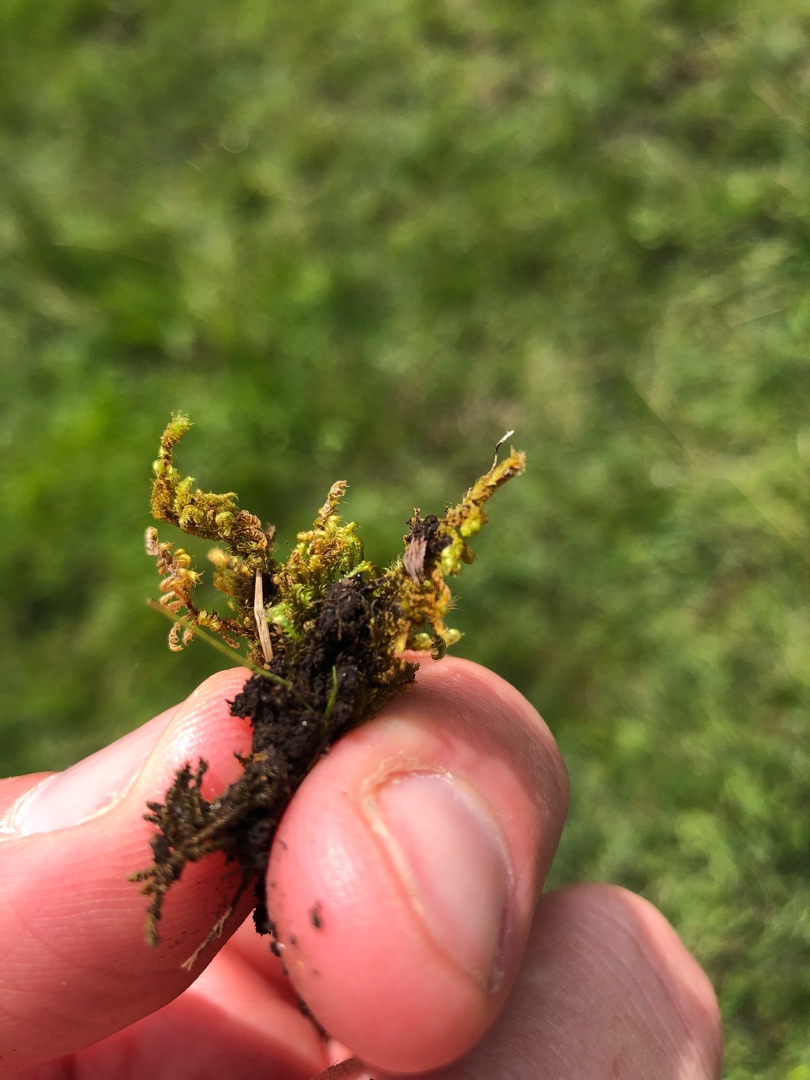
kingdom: Plantae
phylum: Bryophyta
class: Bryopsida
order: Hypnales
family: Myuriaceae
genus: Ctenidium
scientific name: Ctenidium molluscum
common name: Kalk-blødmos
